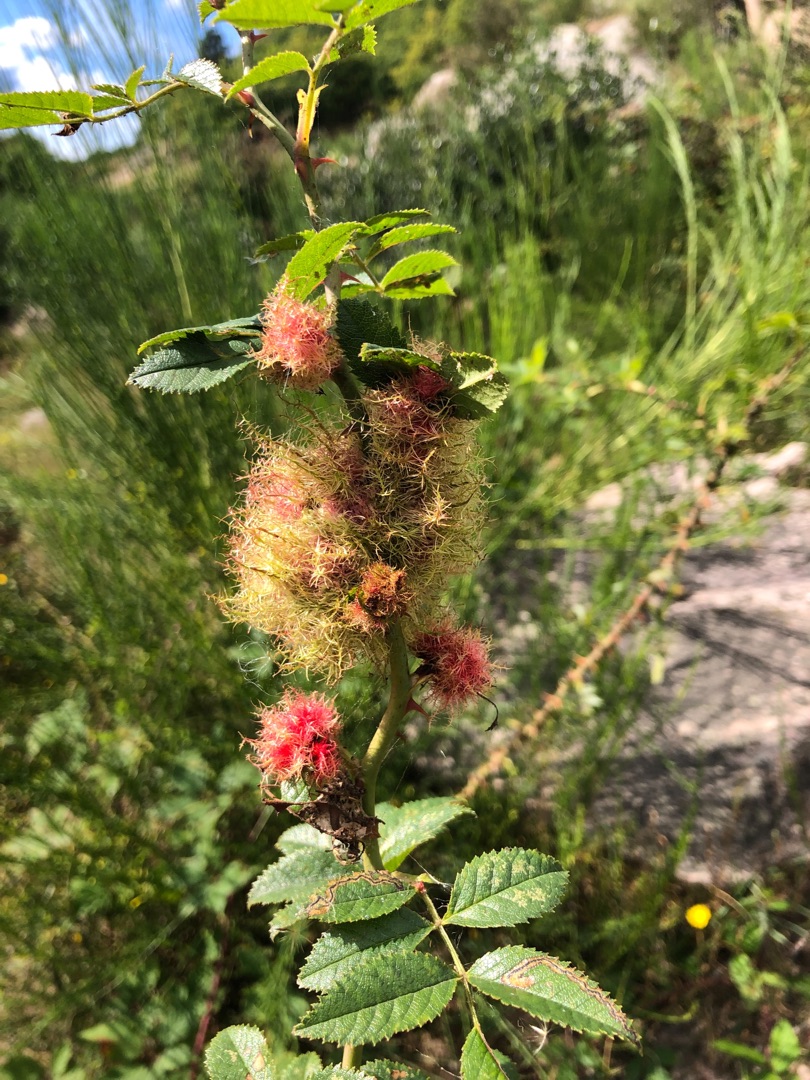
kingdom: Animalia
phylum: Arthropoda
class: Insecta
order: Hymenoptera
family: Cynipidae
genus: Diplolepis
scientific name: Diplolepis rosae
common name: Bedeguargalhveps
